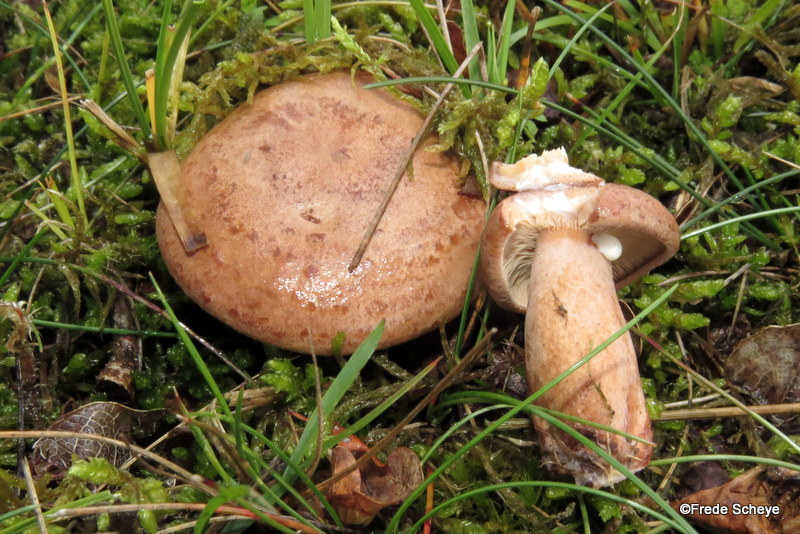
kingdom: Fungi
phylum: Basidiomycota
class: Agaricomycetes
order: Russulales
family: Russulaceae
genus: Lactarius
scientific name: Lactarius quietus
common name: ege-mælkehat
